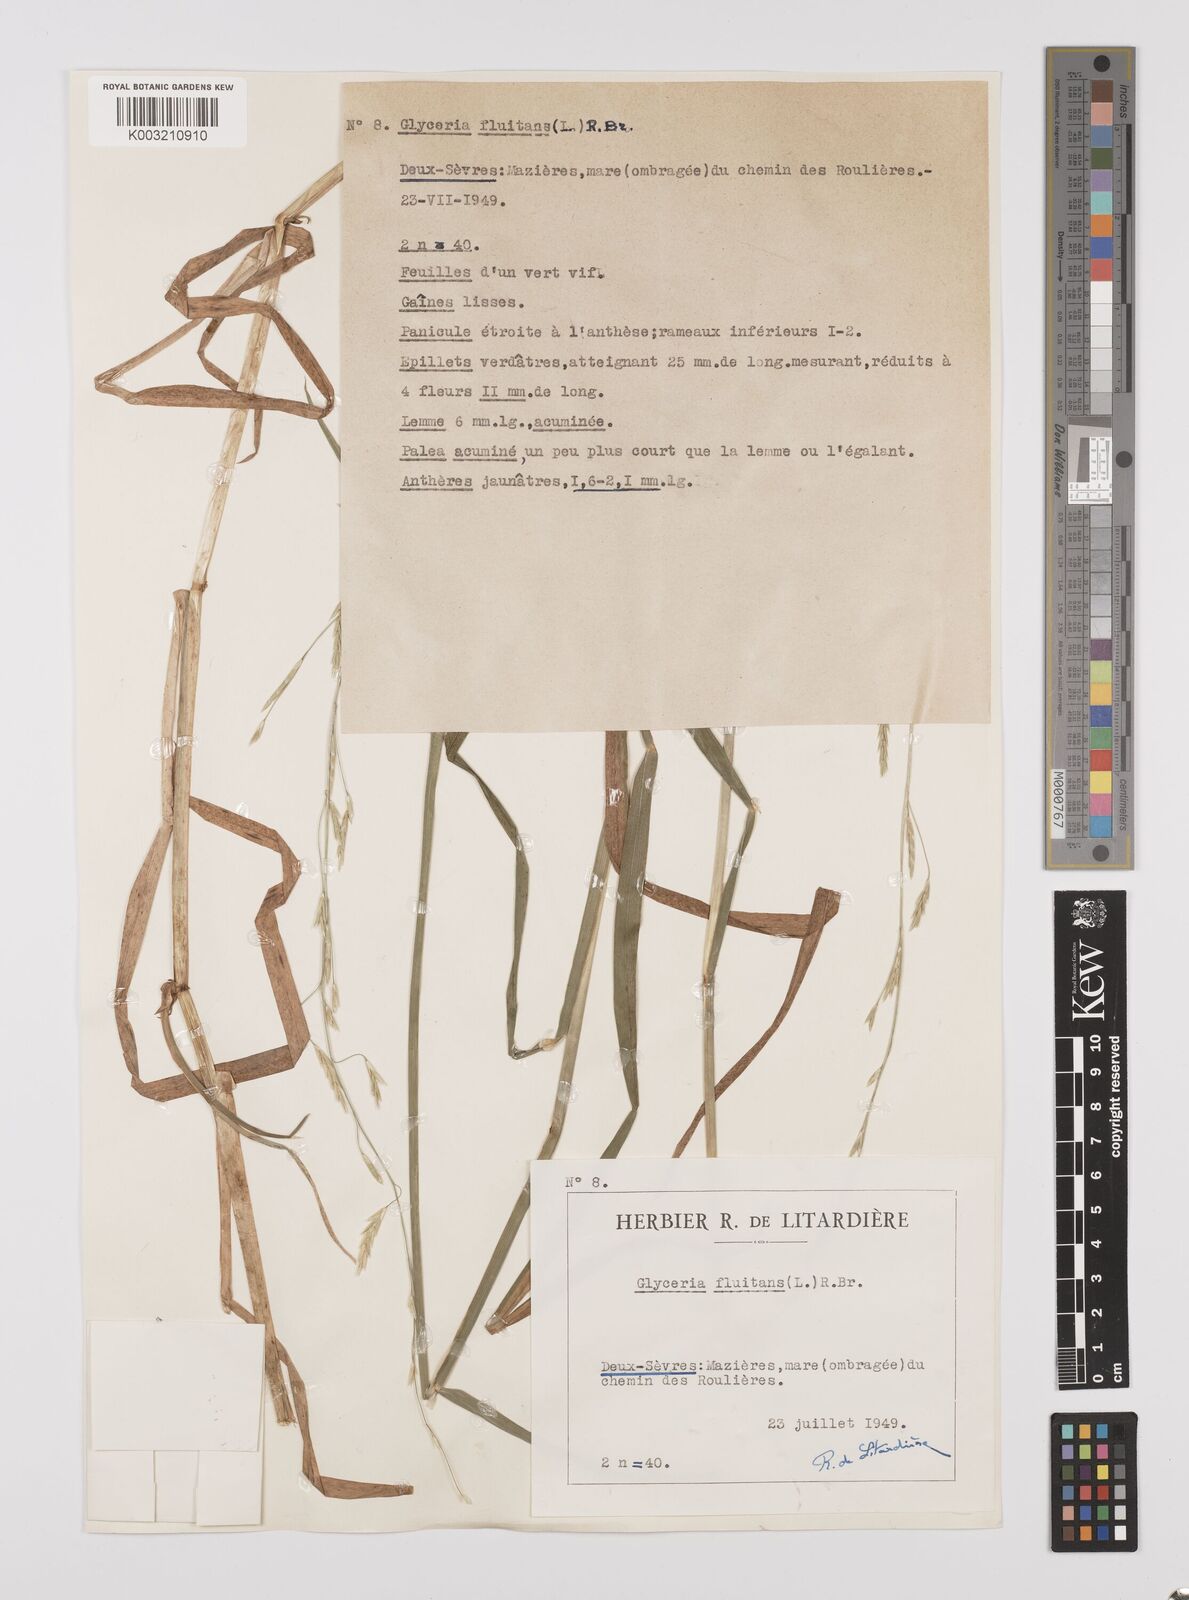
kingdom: Plantae
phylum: Tracheophyta
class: Liliopsida
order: Poales
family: Poaceae
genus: Glyceria
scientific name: Glyceria fluitans
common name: Floating sweet-grass
